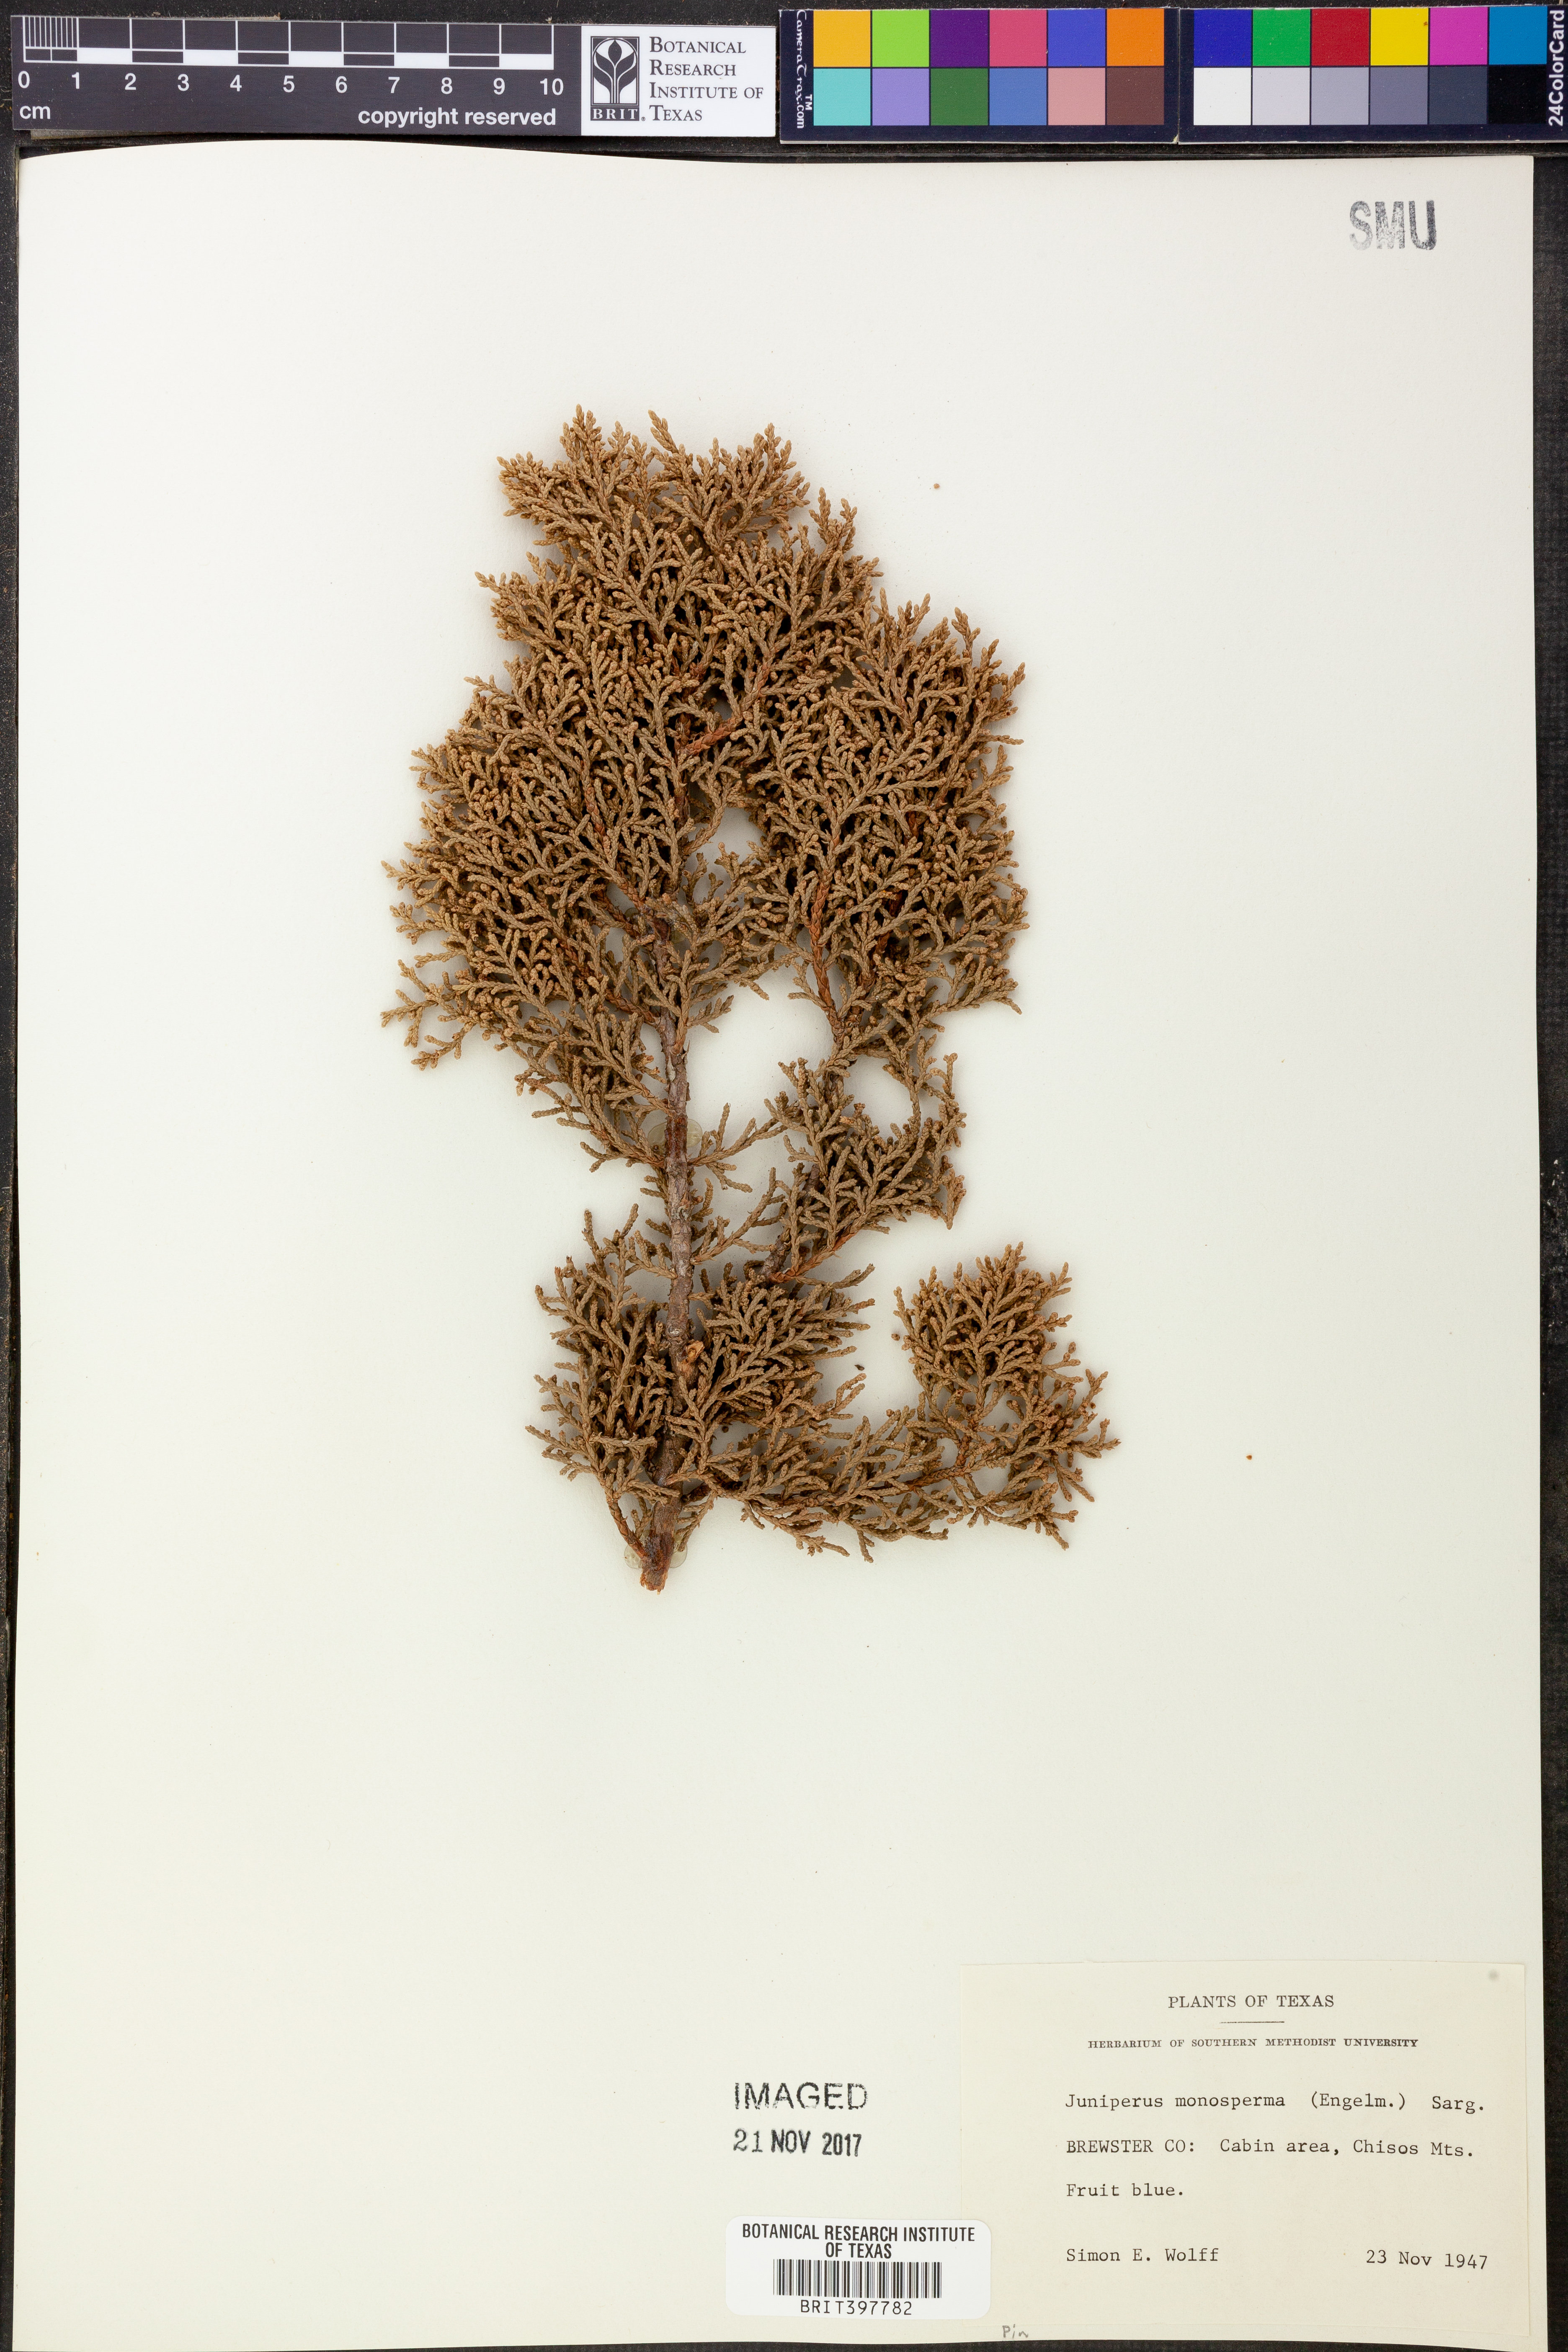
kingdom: Plantae
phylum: Tracheophyta
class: Pinopsida
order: Pinales
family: Cupressaceae
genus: Juniperus
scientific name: Juniperus monosperma
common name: One-seed juniper
